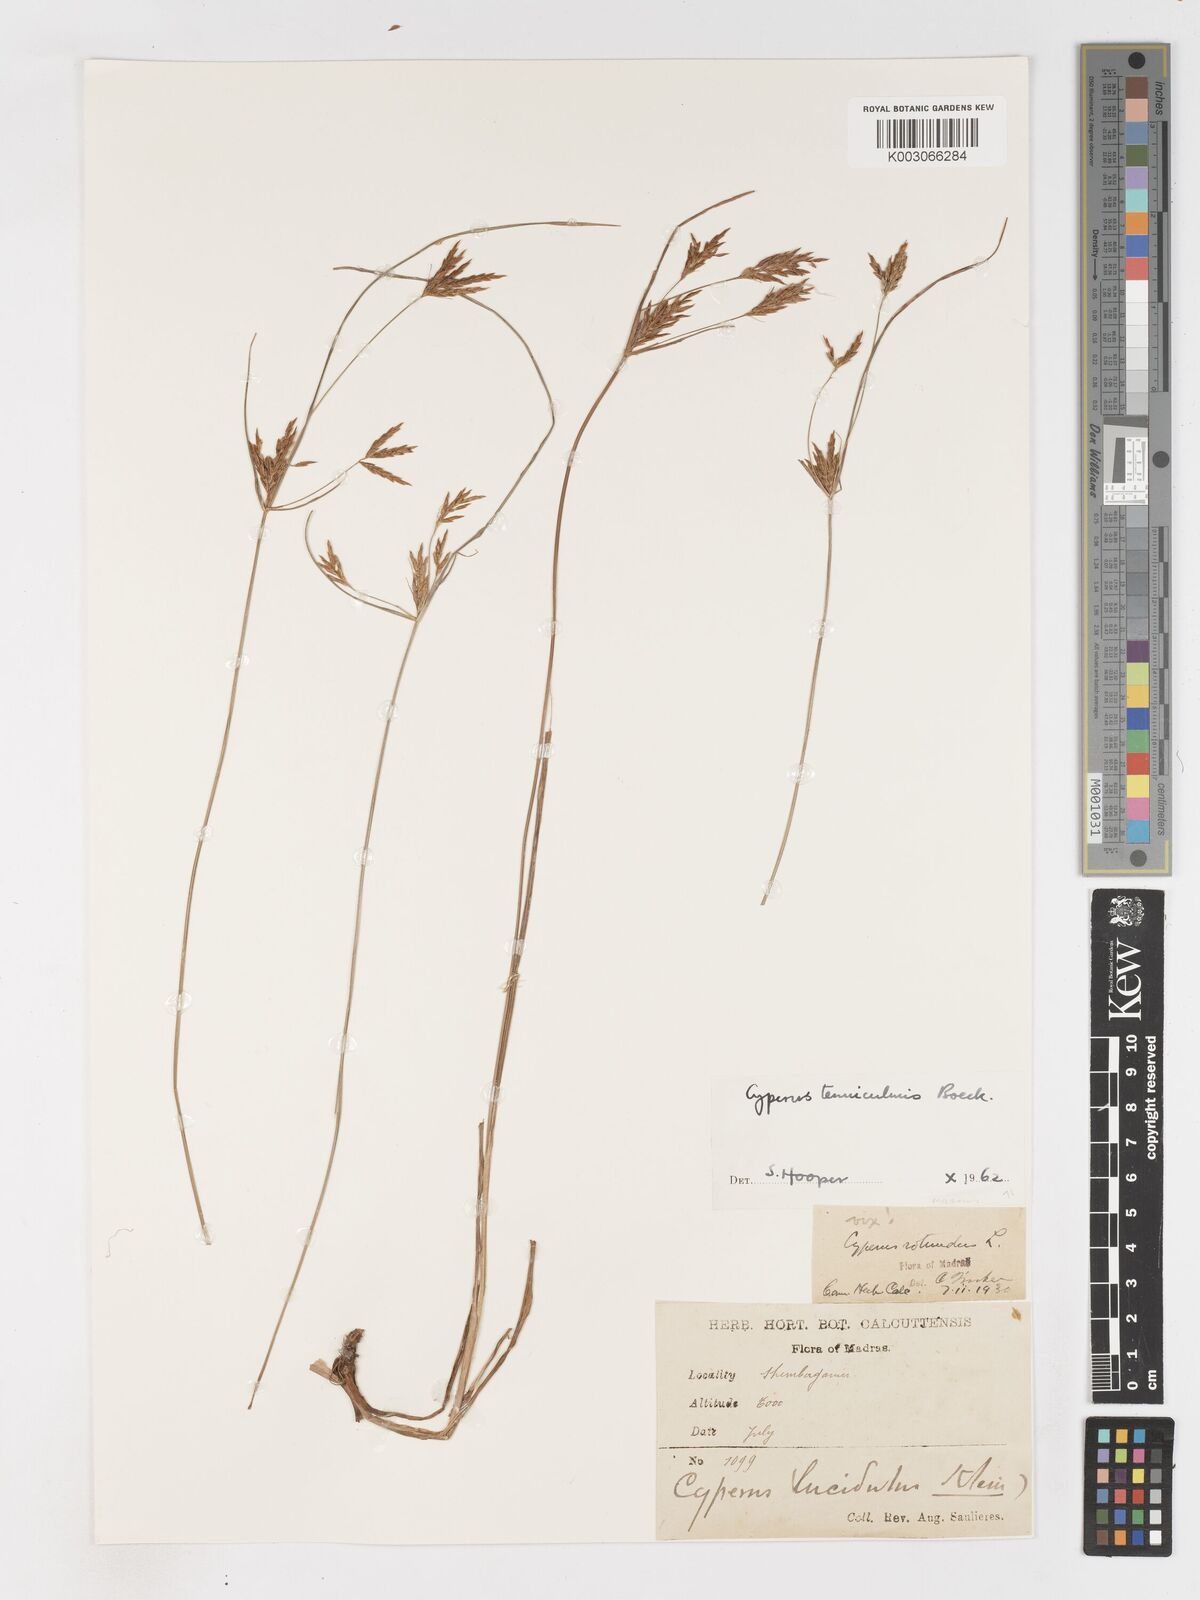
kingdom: Plantae
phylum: Tracheophyta
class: Liliopsida
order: Poales
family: Cyperaceae
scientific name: Cyperaceae
